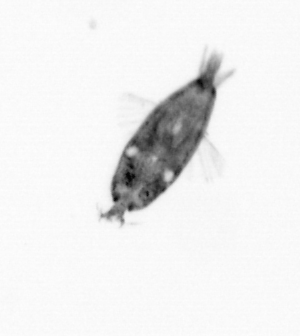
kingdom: Animalia
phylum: Arthropoda
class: Maxillopoda
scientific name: Maxillopoda
